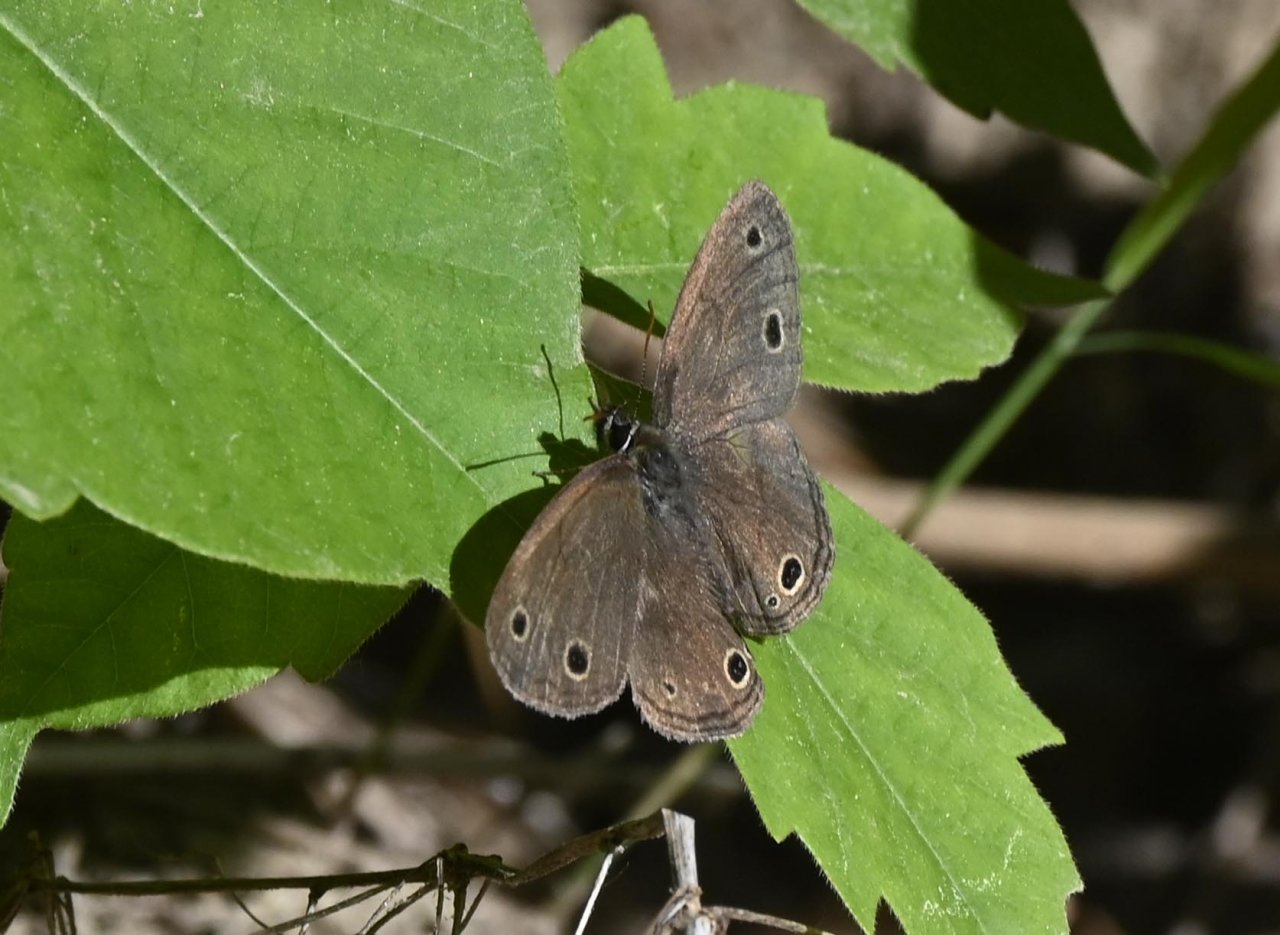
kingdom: Animalia
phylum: Arthropoda
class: Insecta
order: Lepidoptera
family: Nymphalidae
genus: Euptychia
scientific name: Euptychia cymela
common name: Little Wood Satyr
